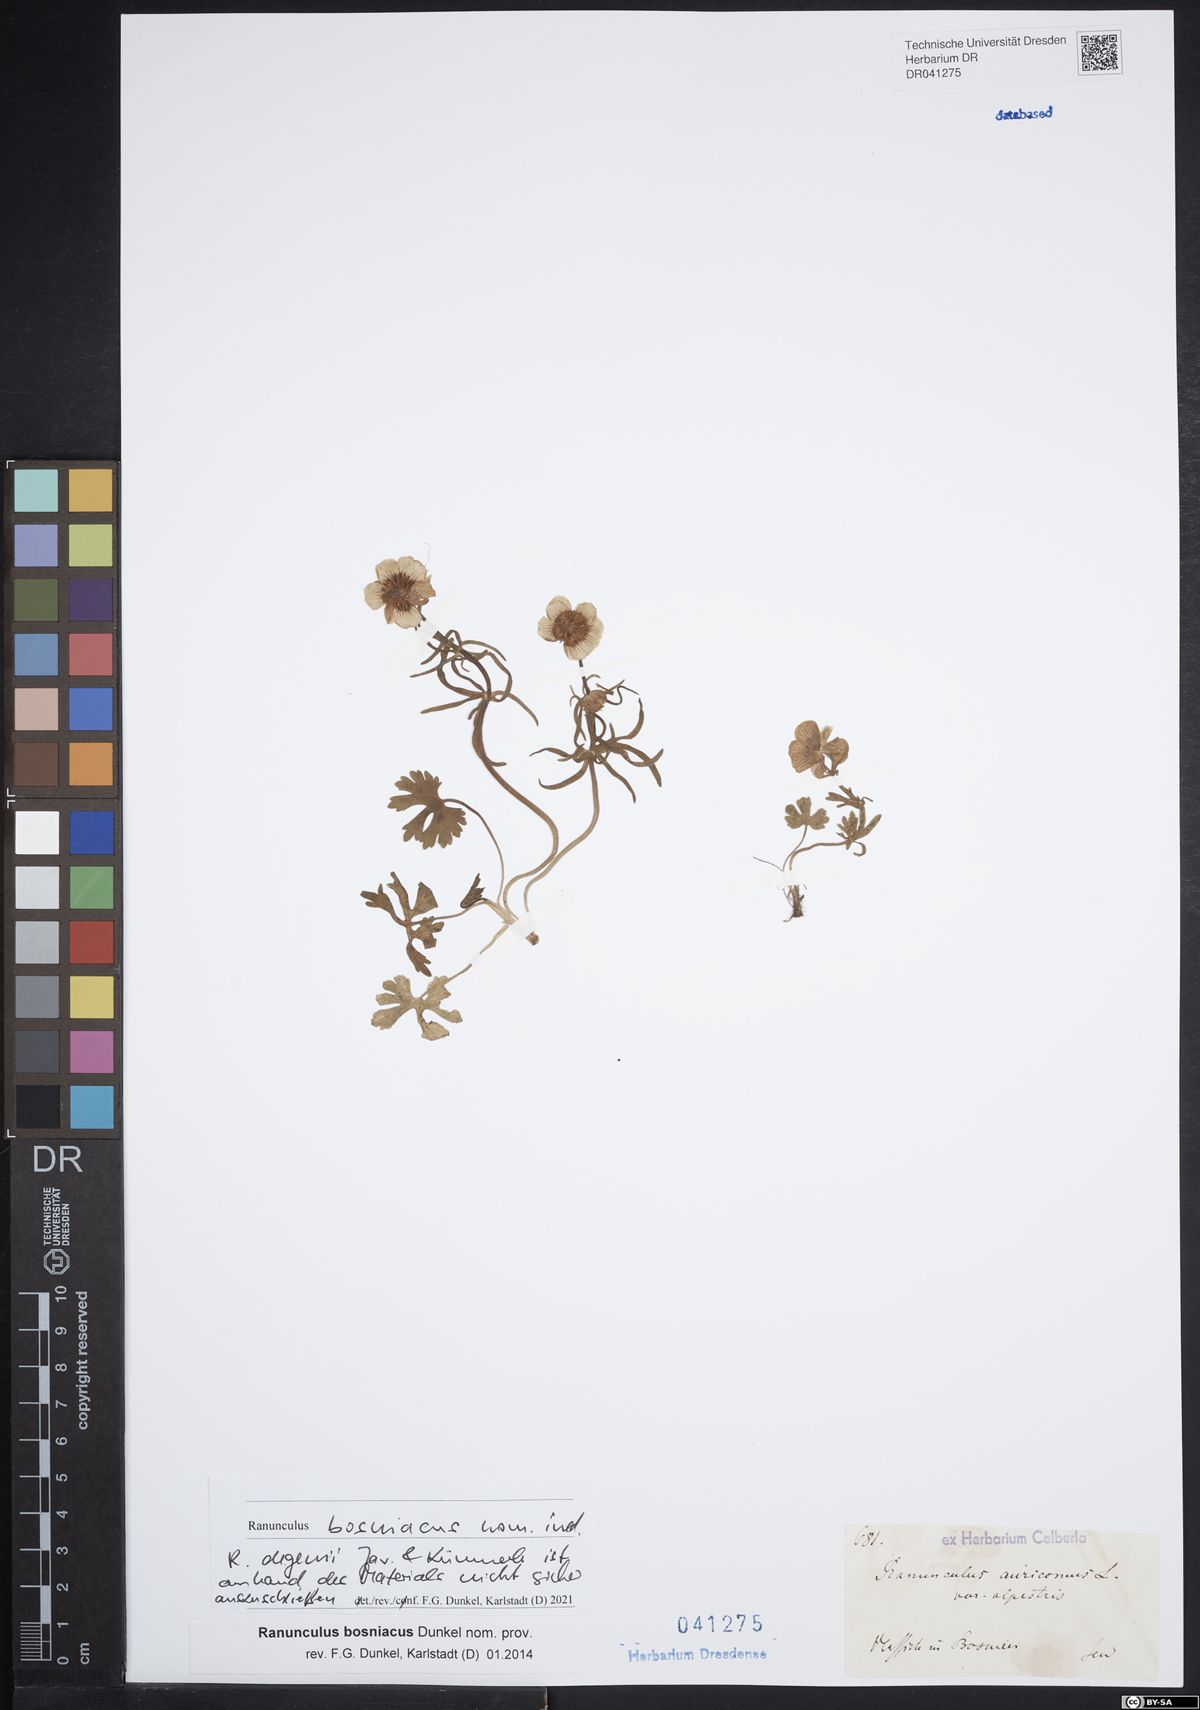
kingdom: Plantae
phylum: Tracheophyta
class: Magnoliopsida
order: Ranunculales
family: Ranunculaceae
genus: Ranunculus
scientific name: Ranunculus auricomus
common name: Goldilocks buttercup
